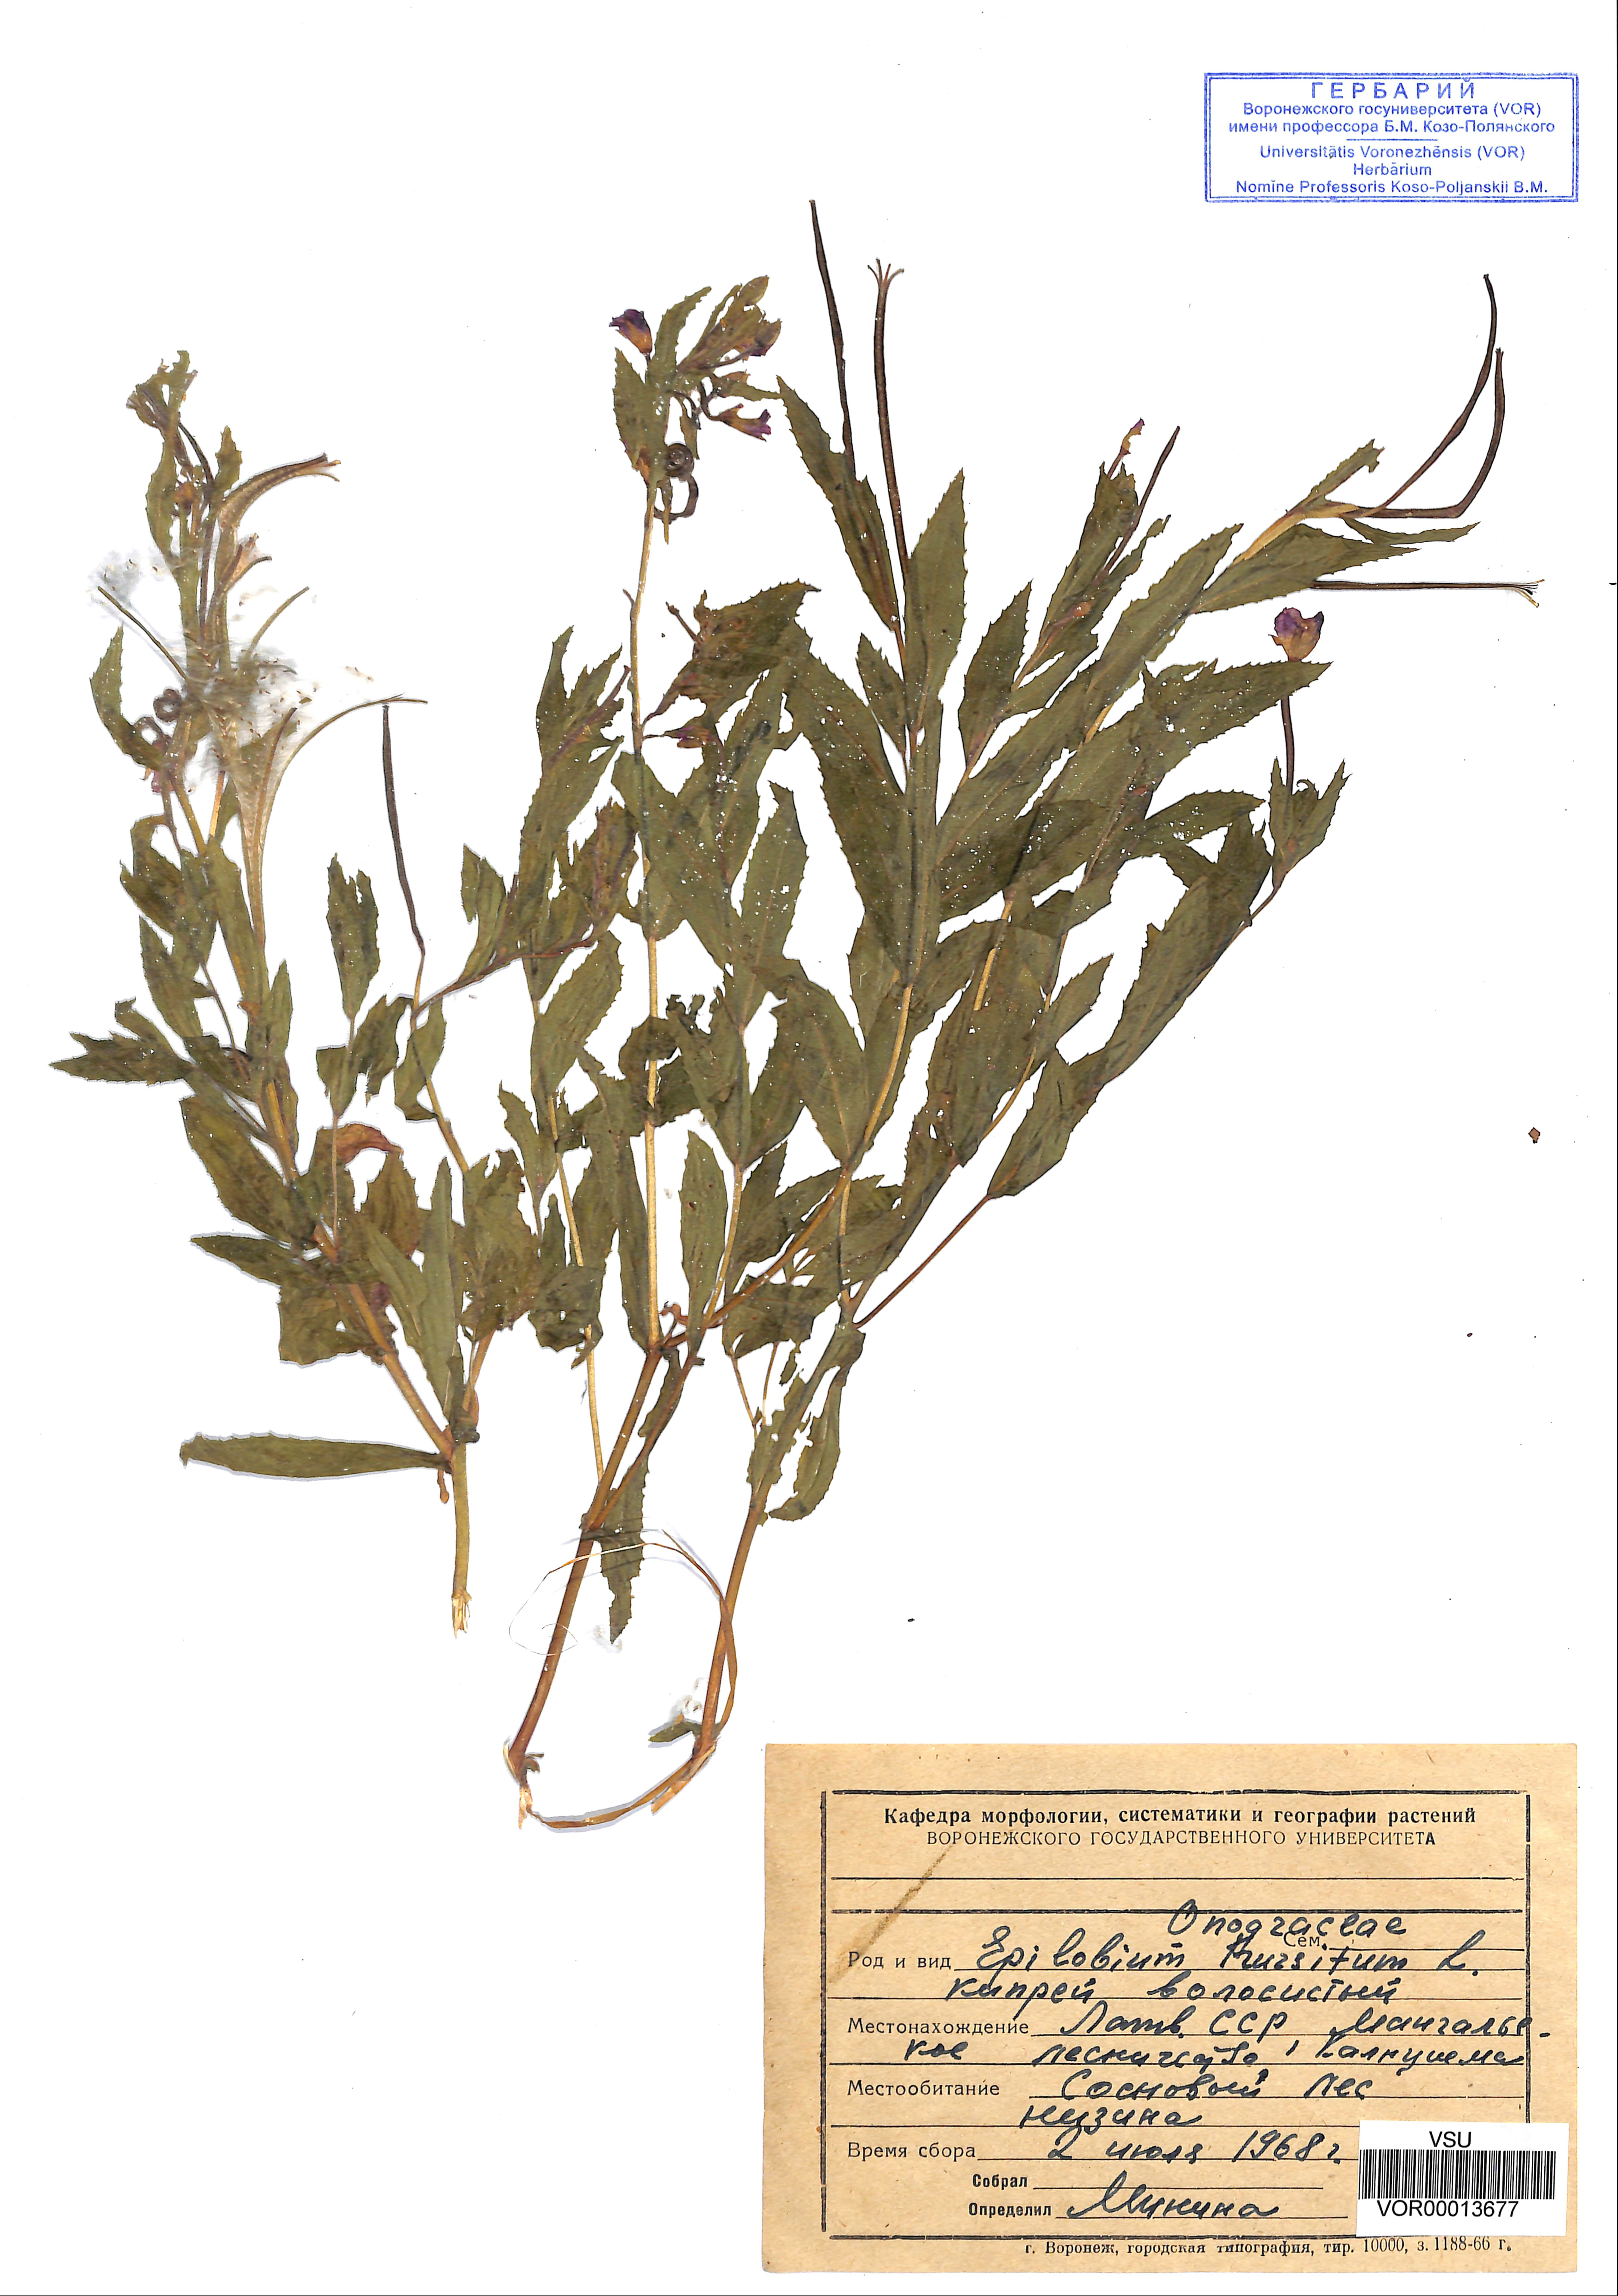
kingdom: Plantae
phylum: Tracheophyta
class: Magnoliopsida
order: Myrtales
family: Onagraceae
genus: Epilobium
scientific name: Epilobium hirsutum
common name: Great willowherb
